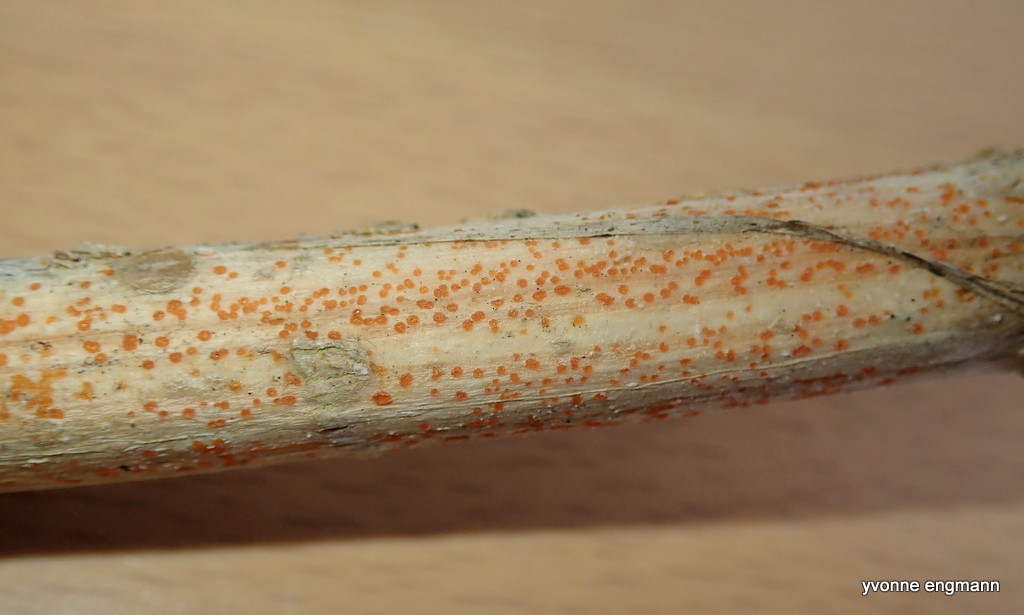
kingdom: Fungi
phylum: Ascomycota
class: Leotiomycetes
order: Helotiales
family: Calloriaceae
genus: Calloria
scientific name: Calloria urticae
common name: nælde-orangeskive
